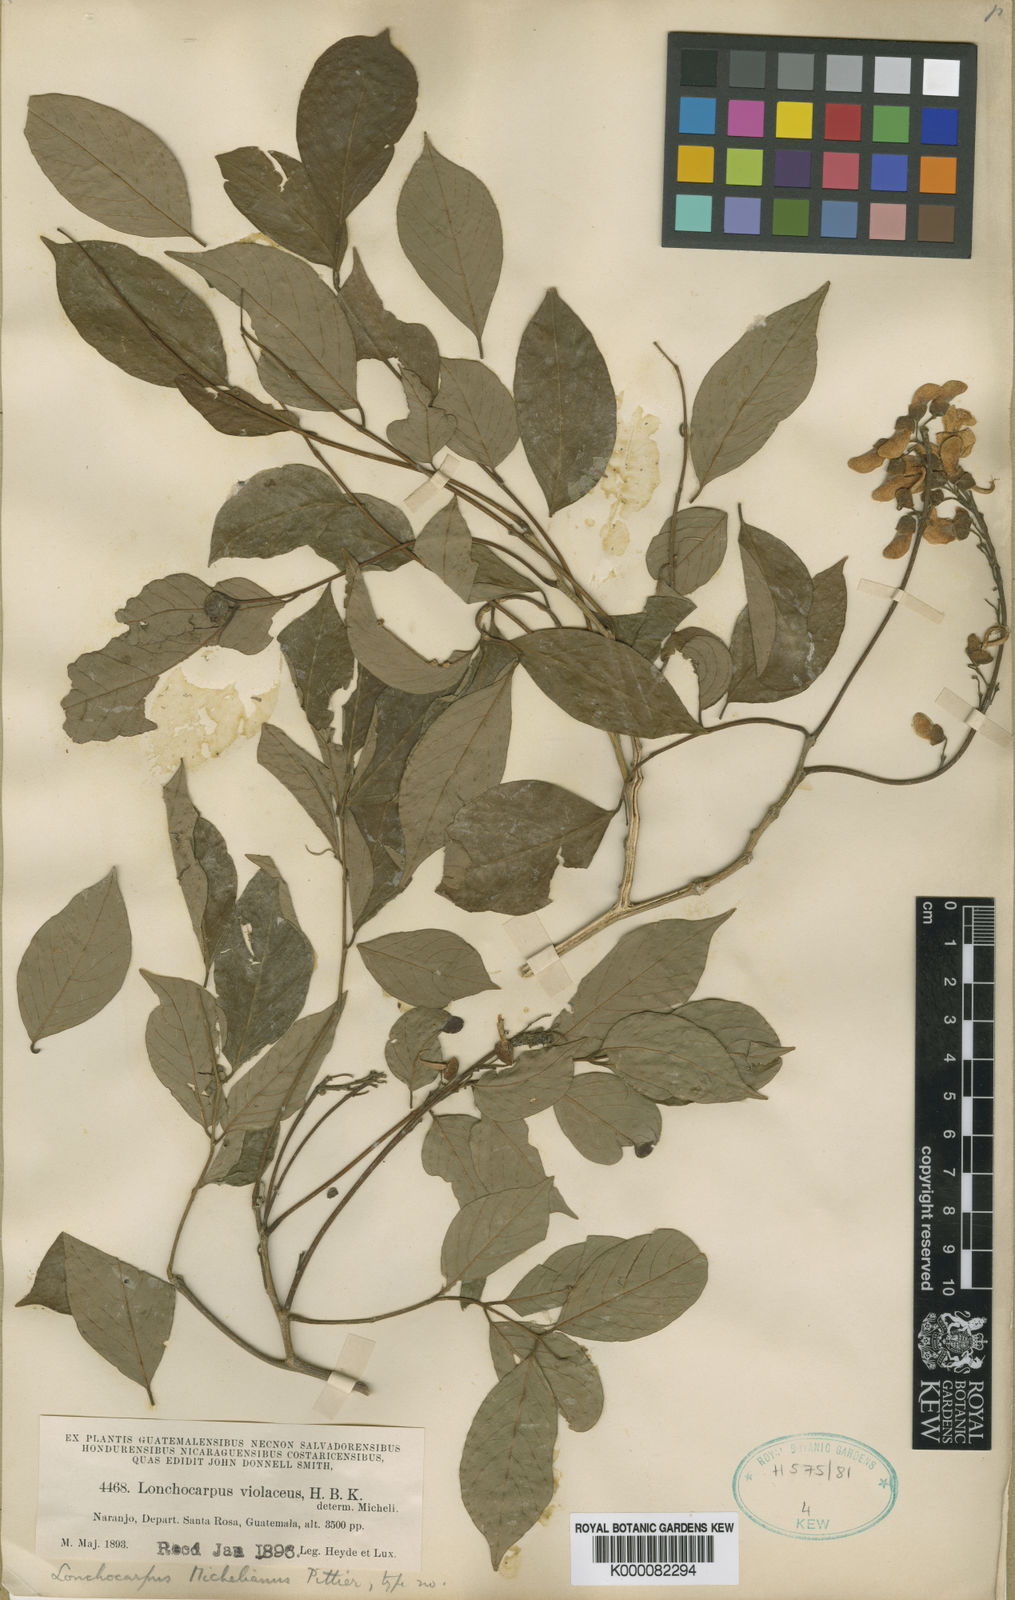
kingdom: Plantae
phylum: Tracheophyta
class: Magnoliopsida
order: Fabales
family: Fabaceae
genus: Lonchocarpus
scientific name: Lonchocarpus michelianus
